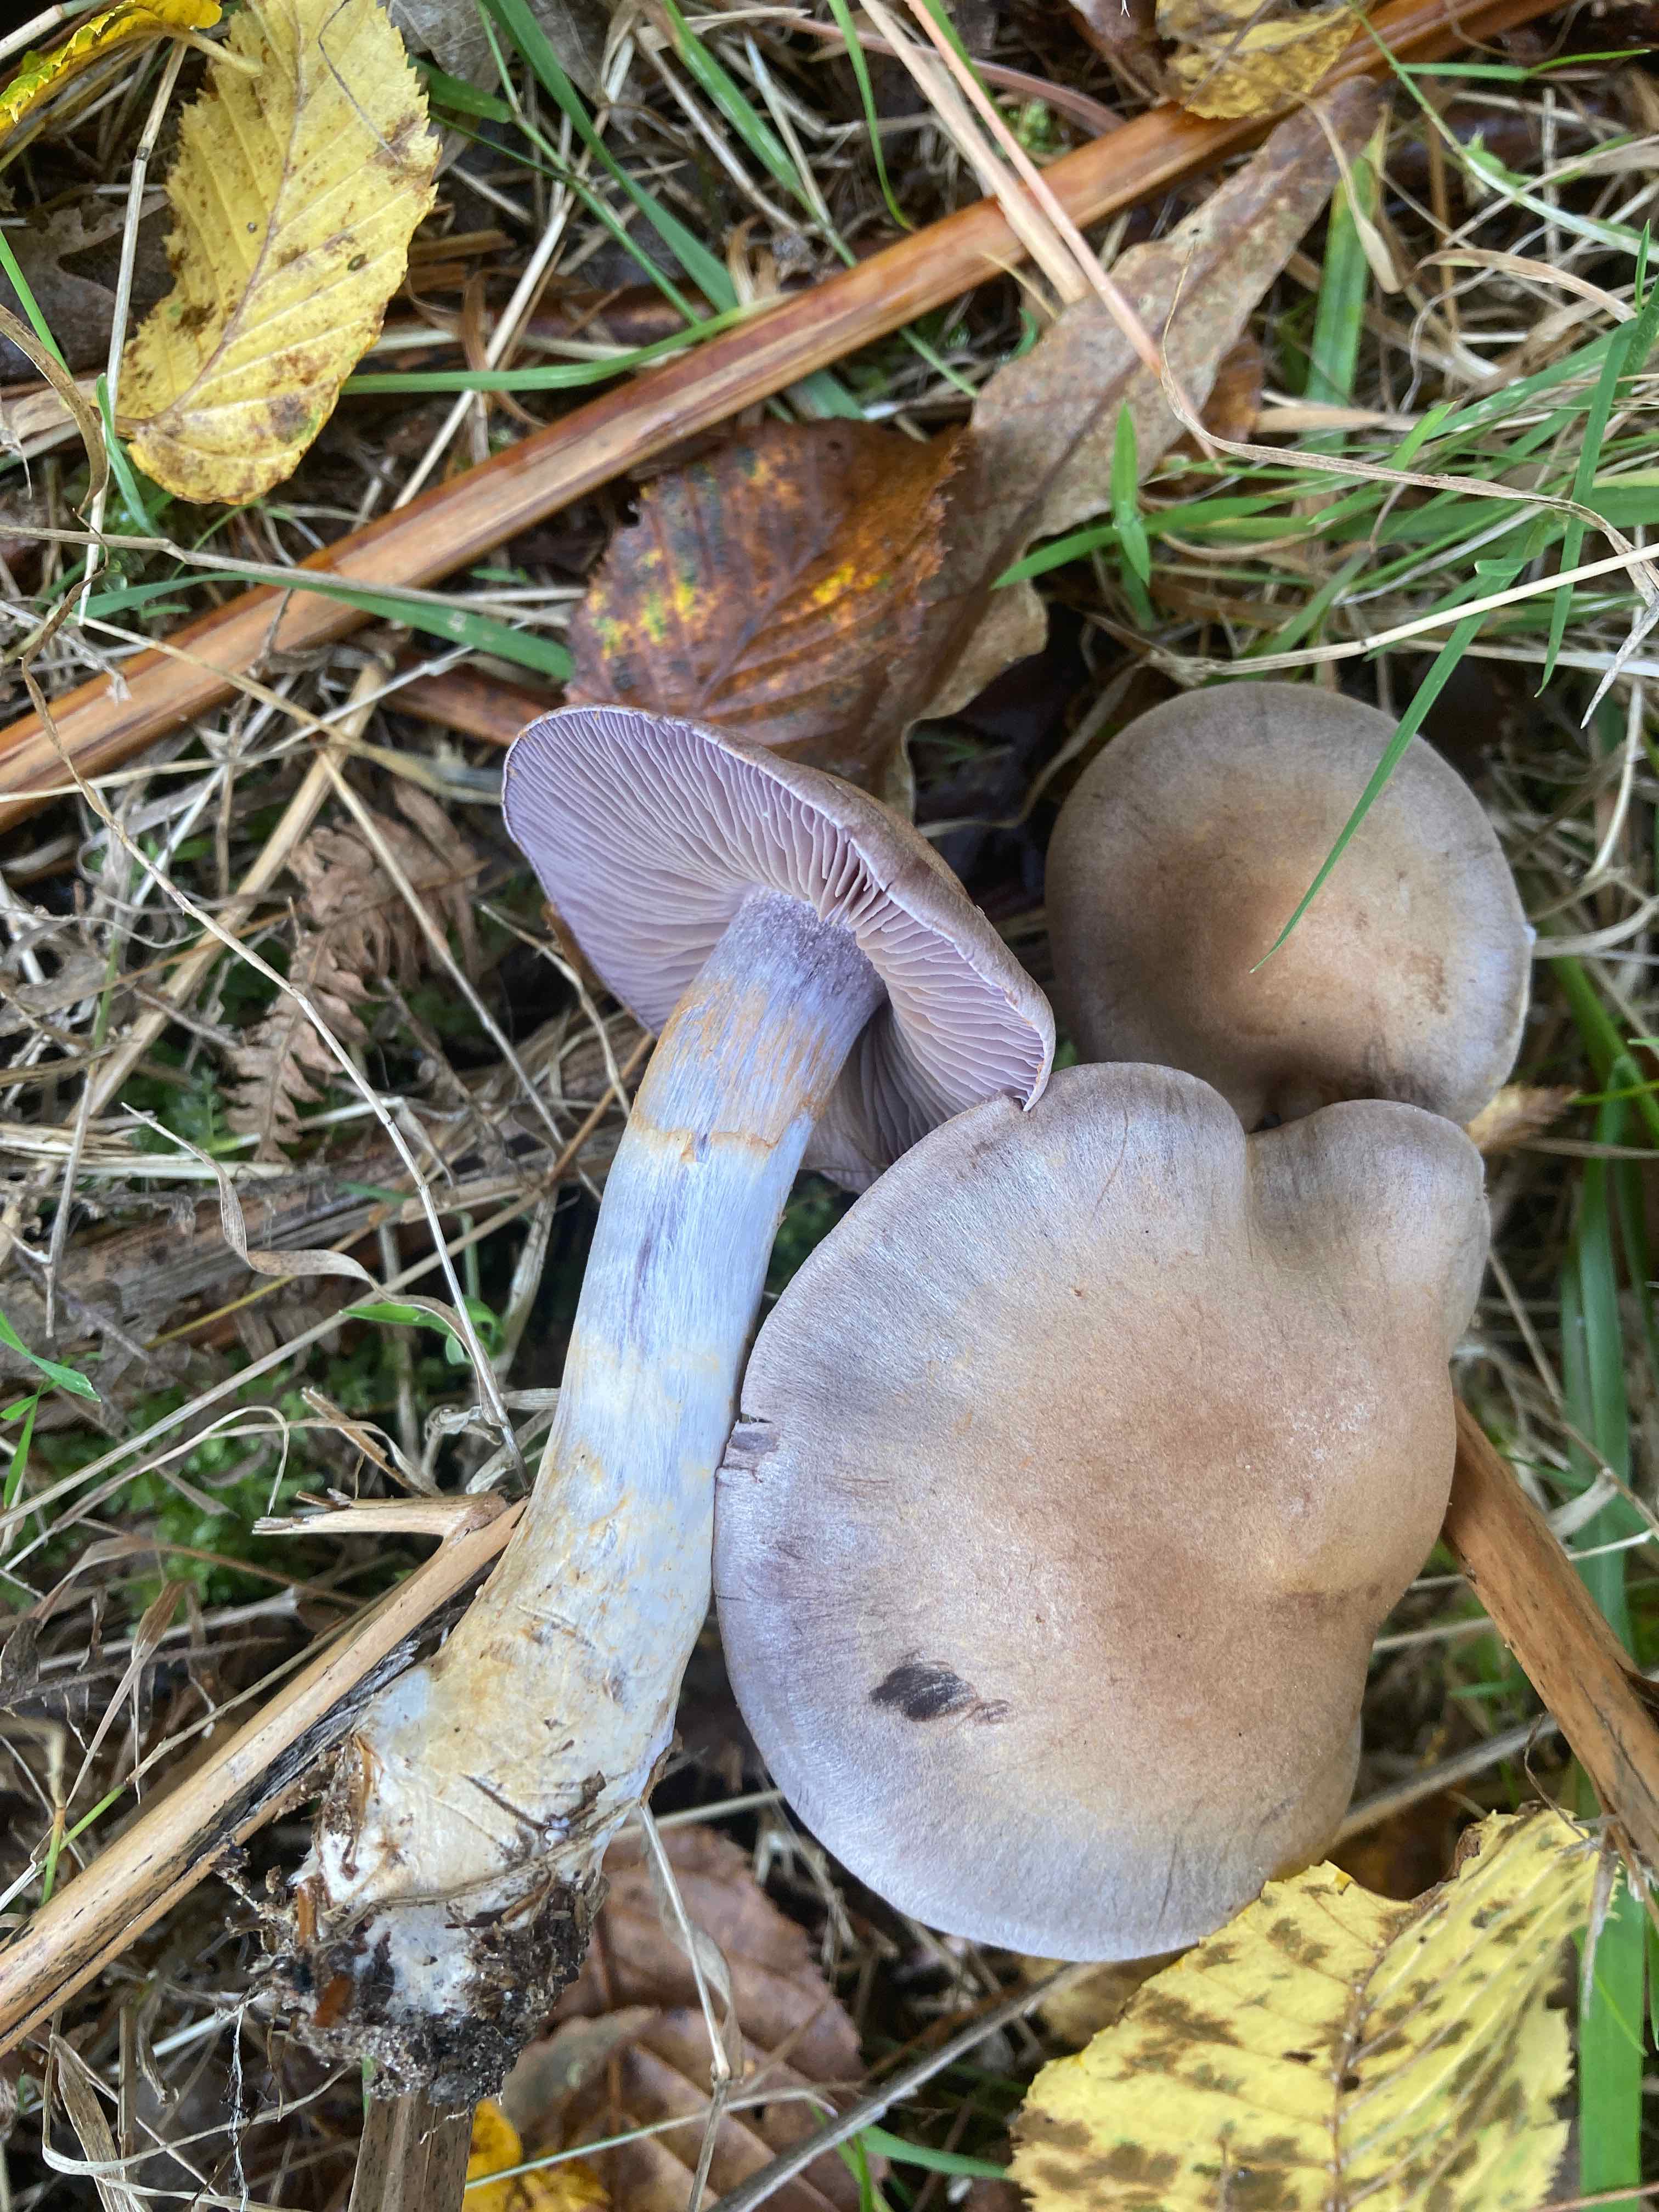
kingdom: Fungi
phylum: Basidiomycota
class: Agaricomycetes
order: Agaricales
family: Cortinariaceae
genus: Cortinarius
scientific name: Cortinarius
